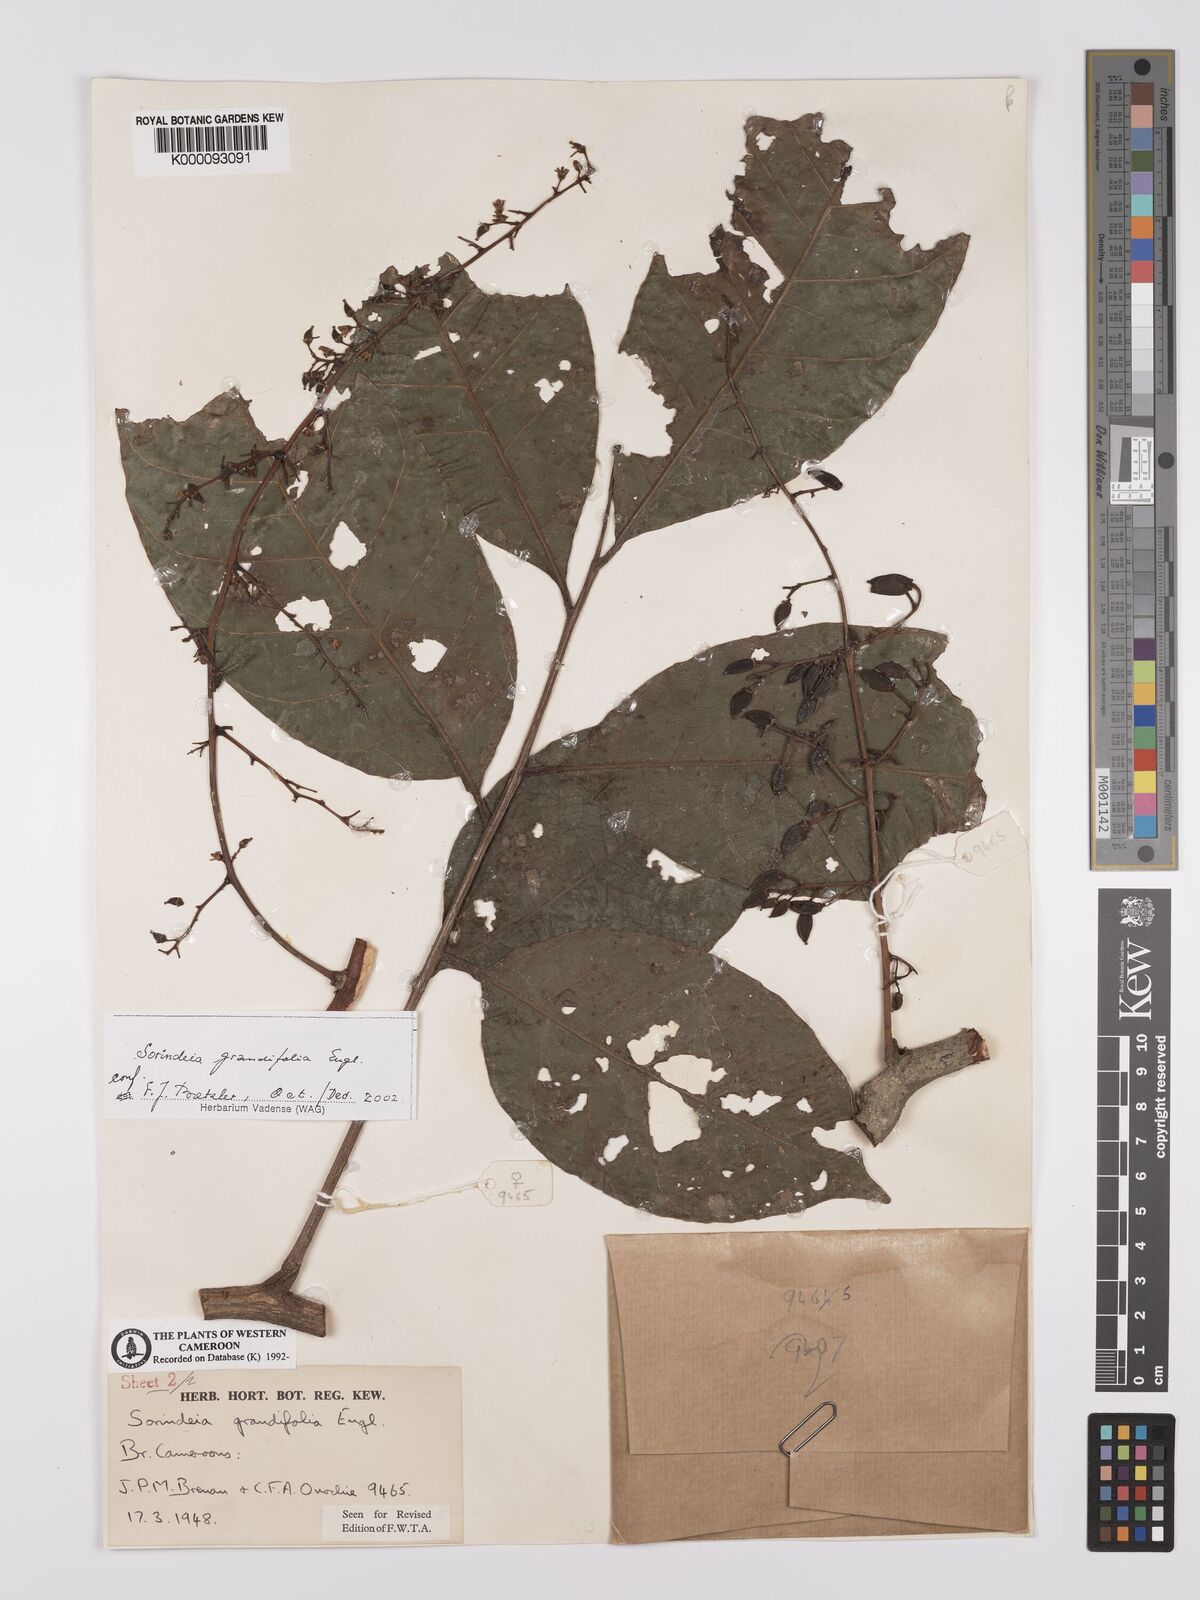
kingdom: Plantae
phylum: Tracheophyta
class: Magnoliopsida
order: Sapindales
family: Anacardiaceae
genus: Sorindeia
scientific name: Sorindeia grandifolia
